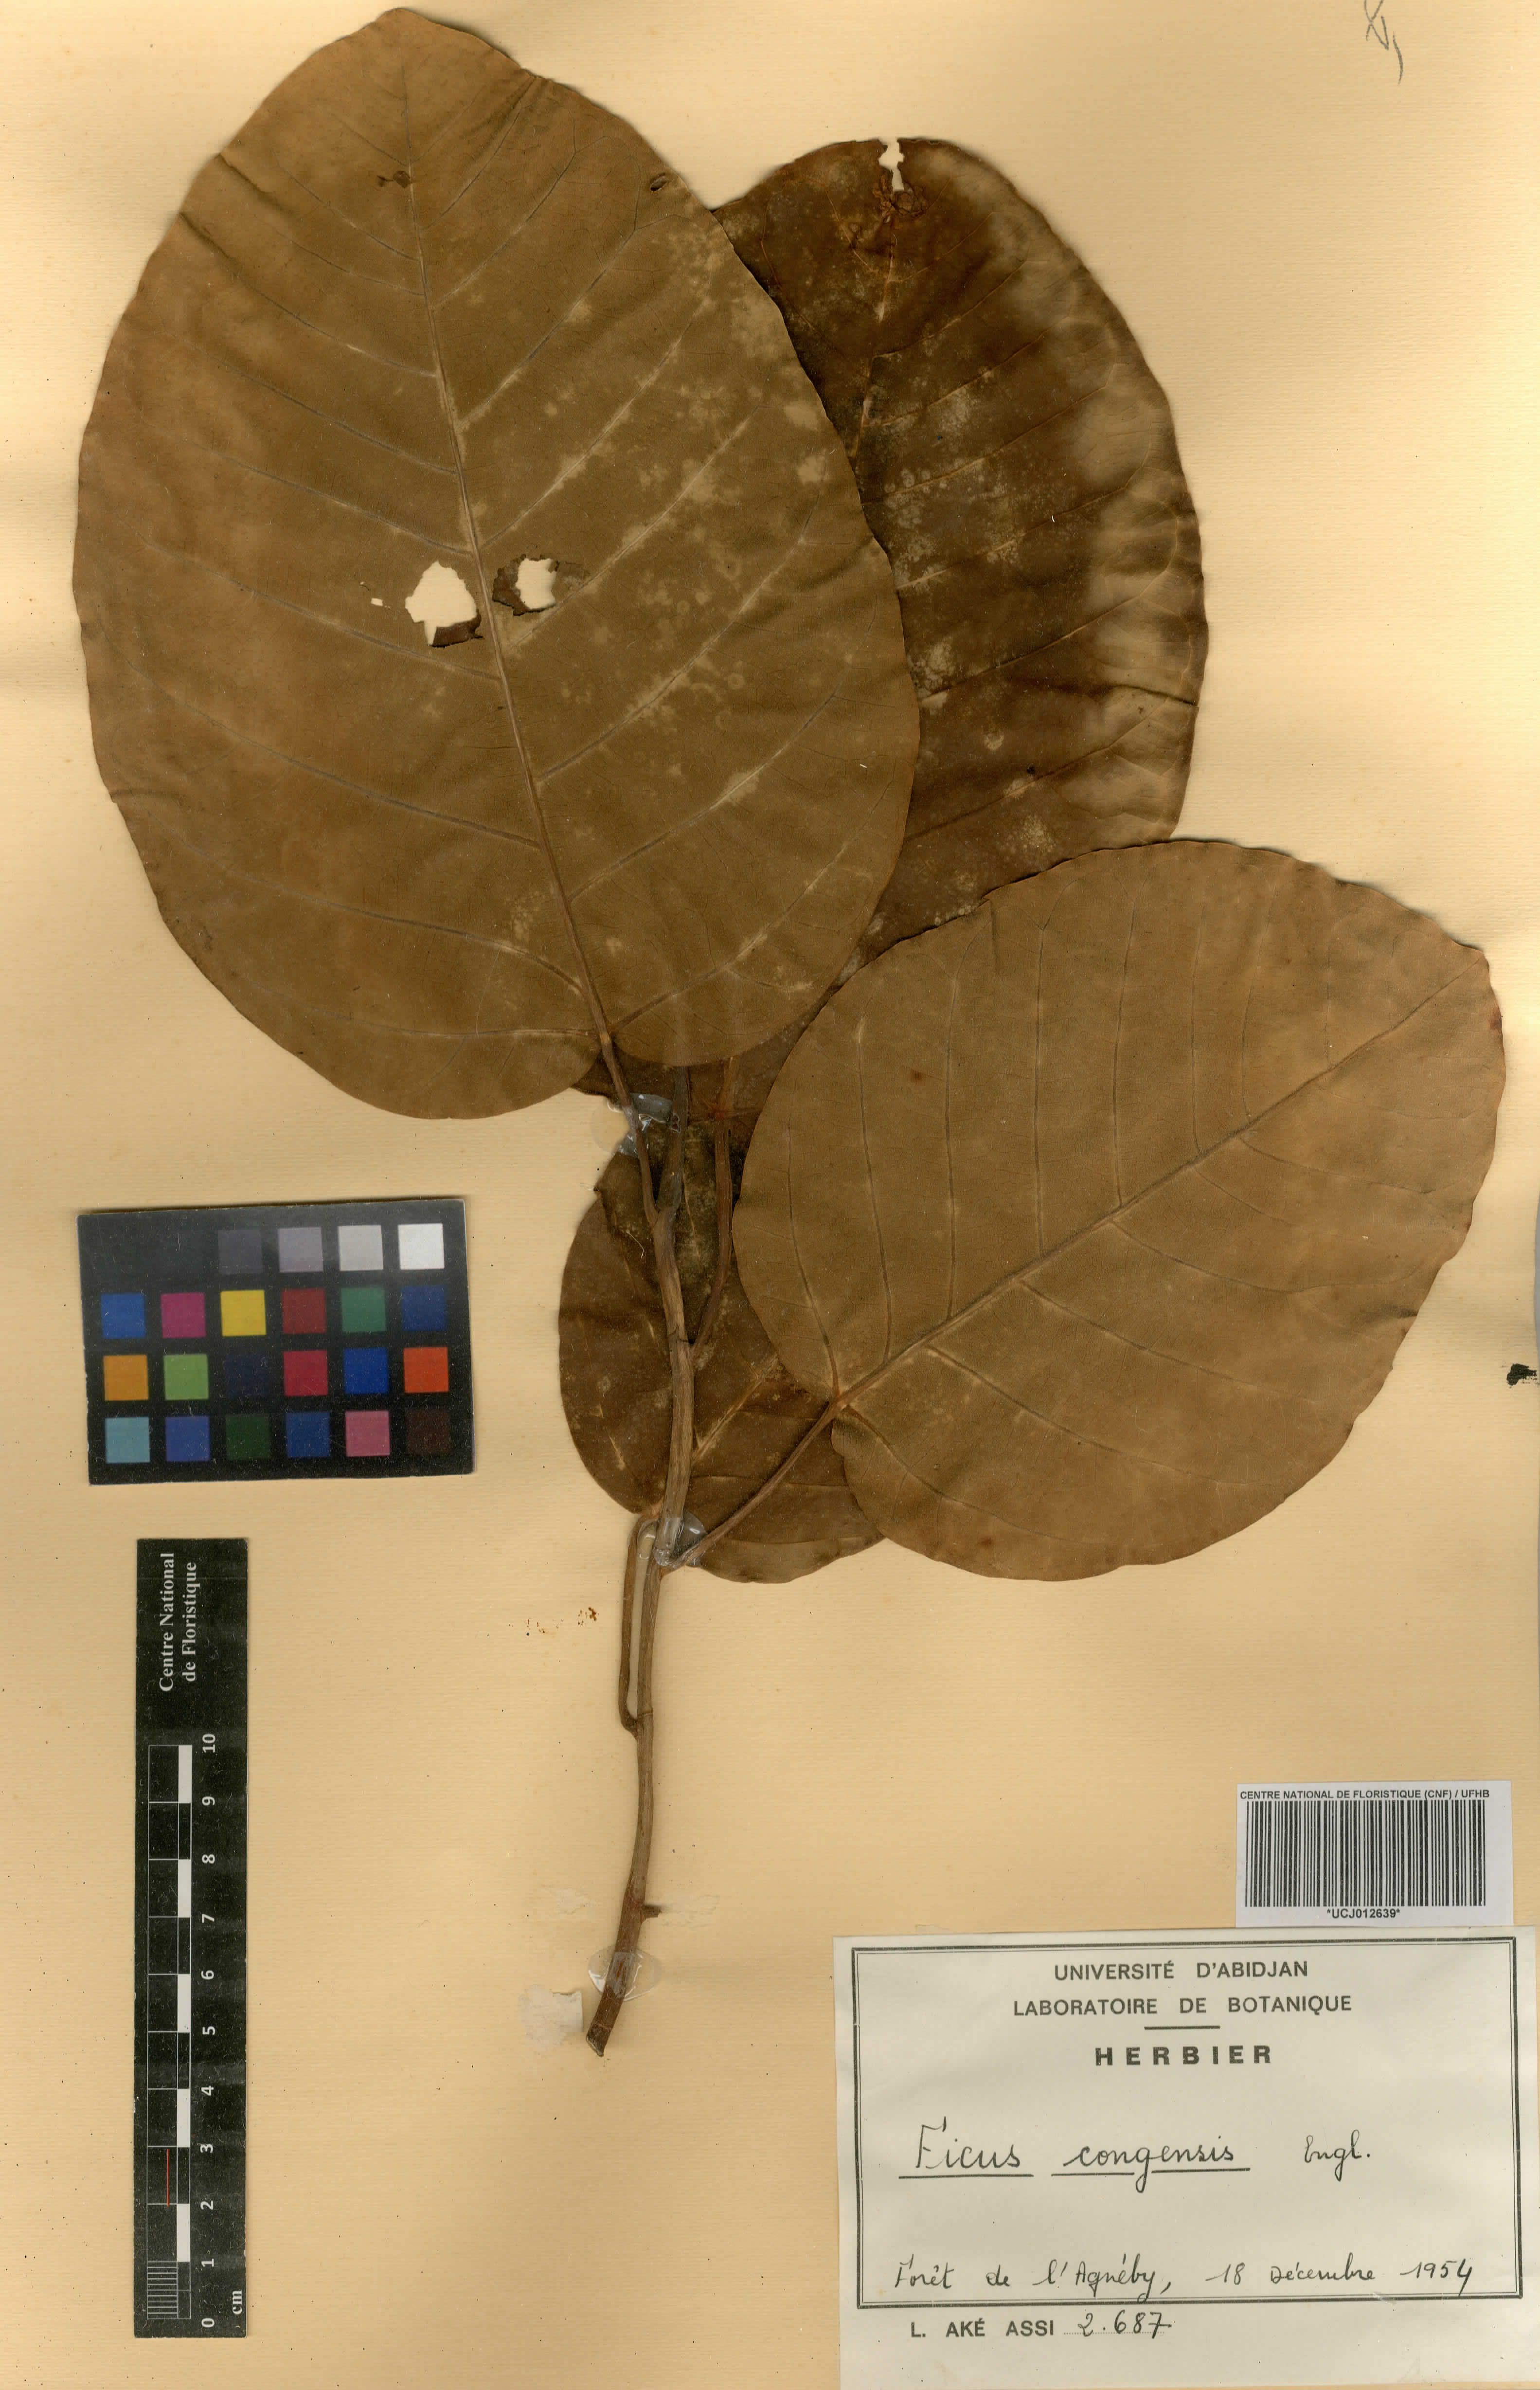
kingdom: Plantae
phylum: Tracheophyta
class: Magnoliopsida
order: Rosales
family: Moraceae
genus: Ficus
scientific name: Ficus trichopoda
